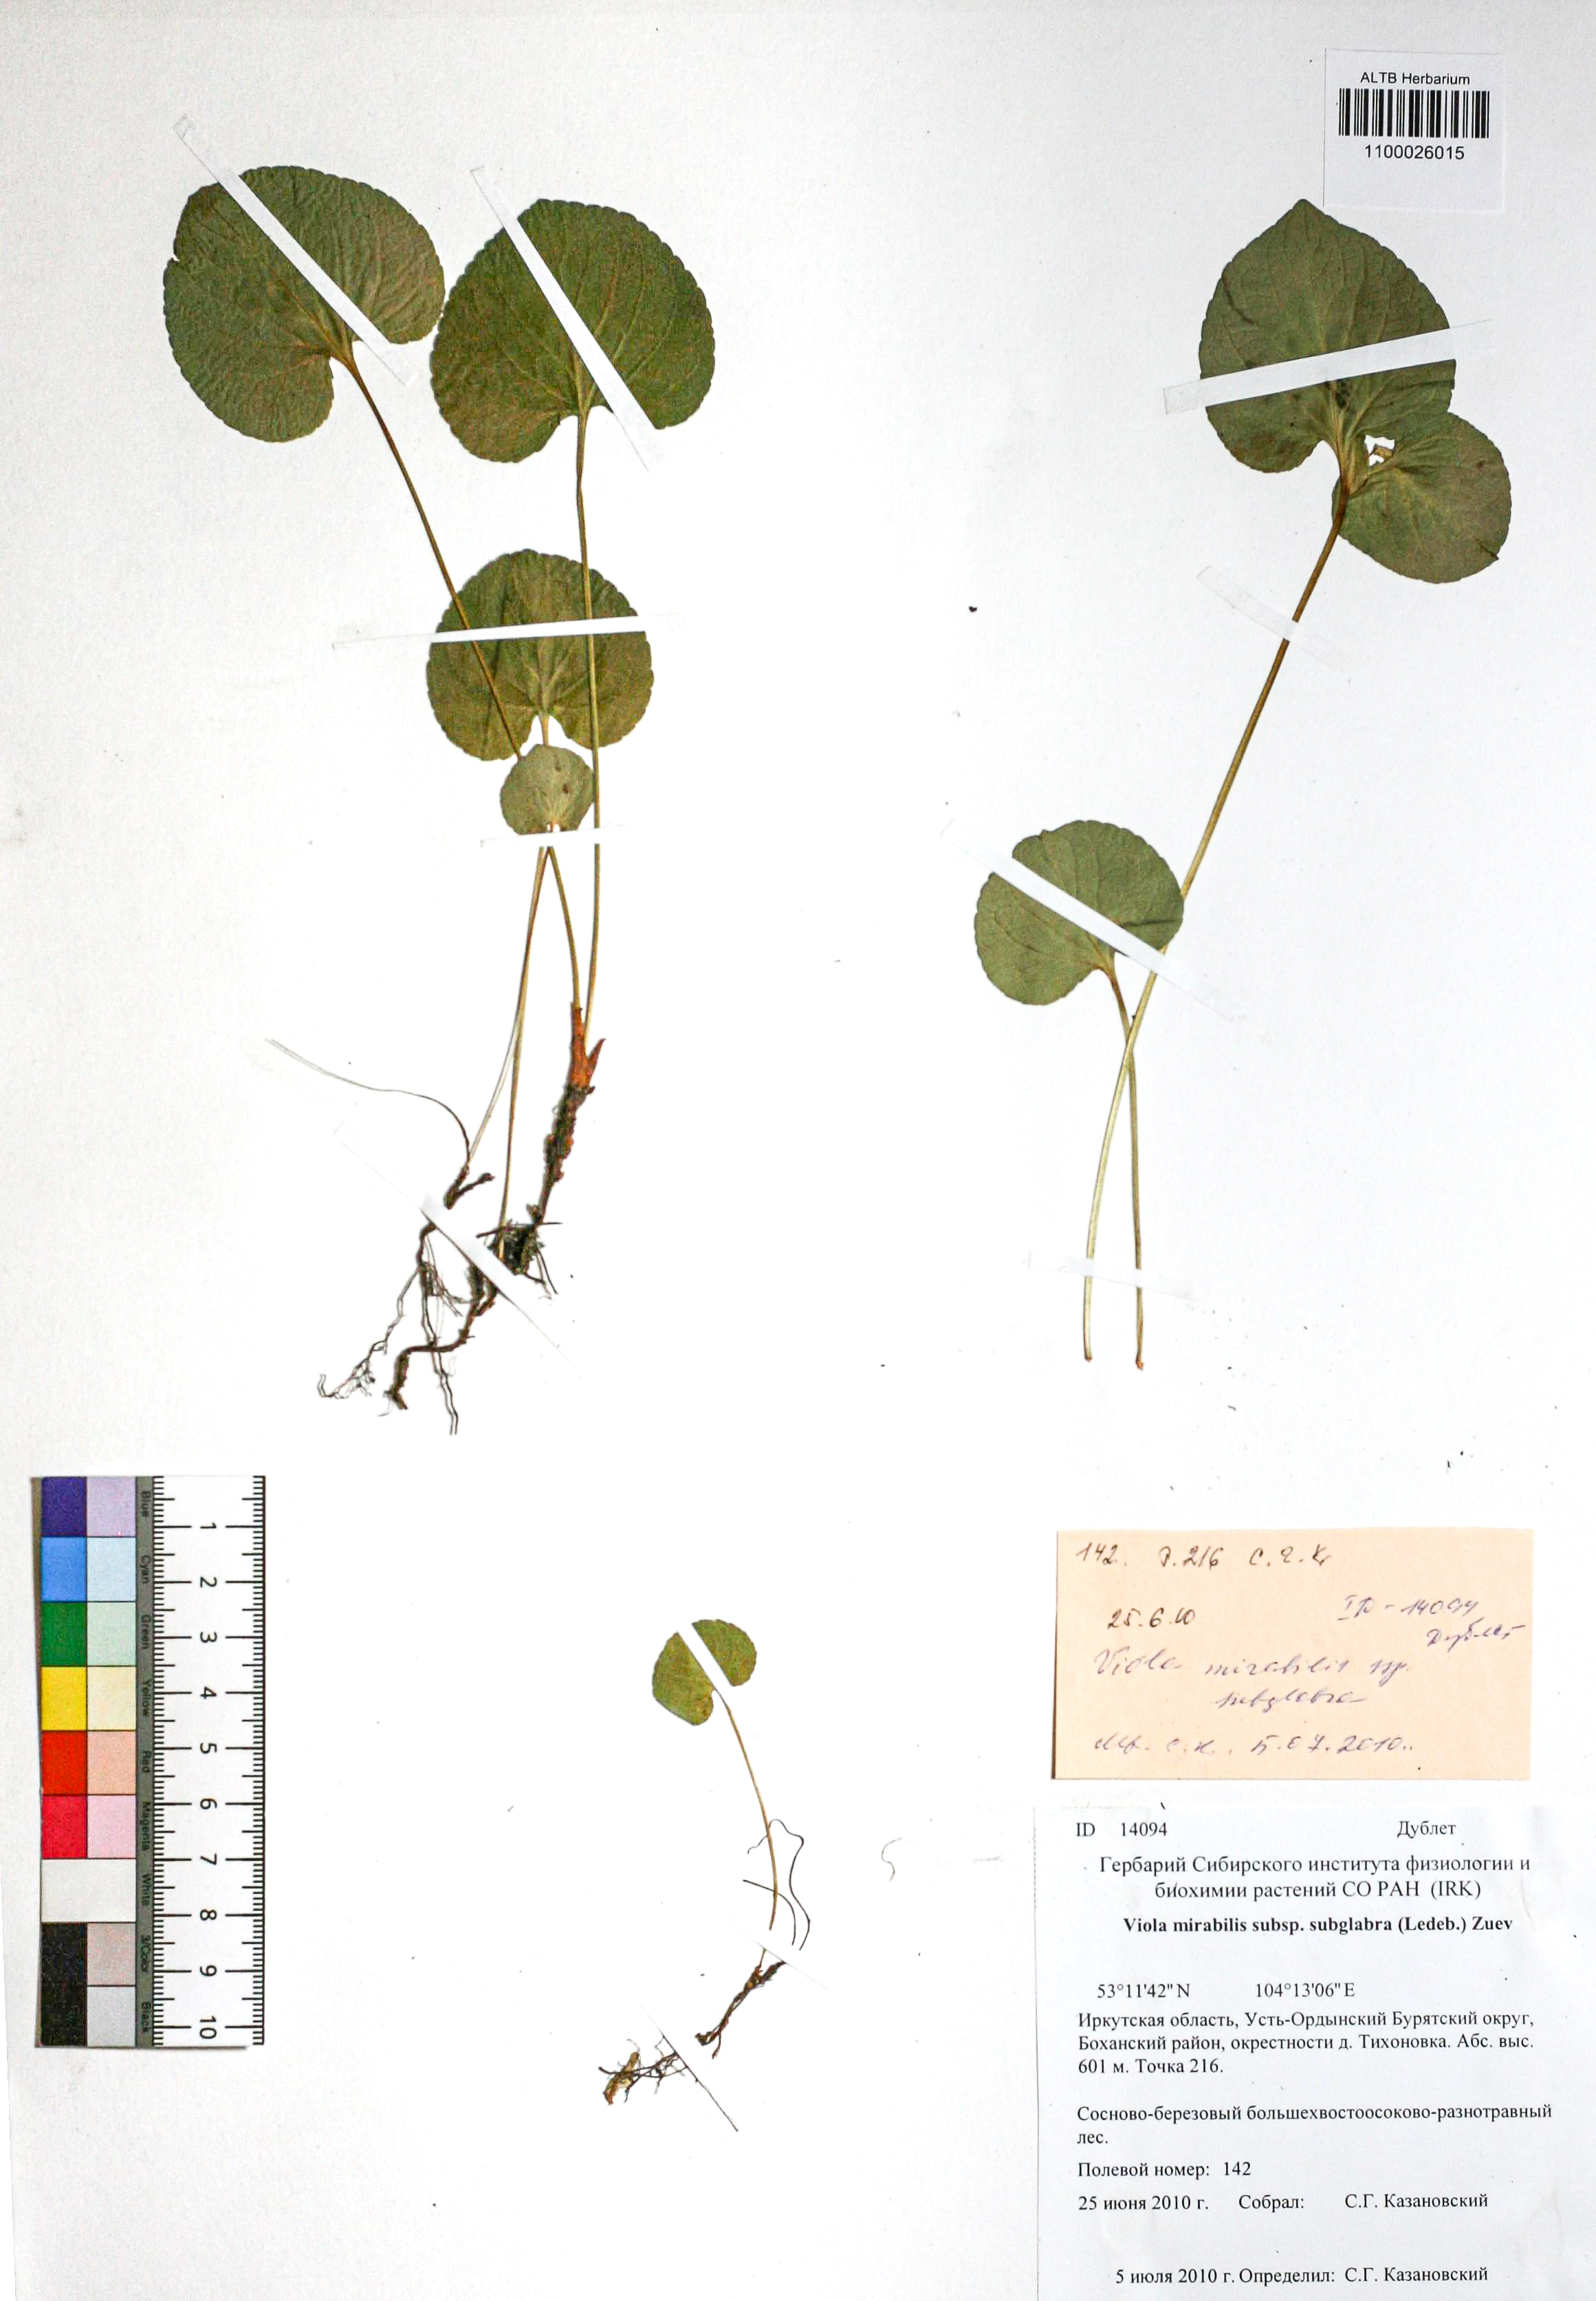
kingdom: Plantae
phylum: Tracheophyta
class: Magnoliopsida
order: Malpighiales
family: Violaceae
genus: Viola
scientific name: Viola mirabilis
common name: Wonder violet
